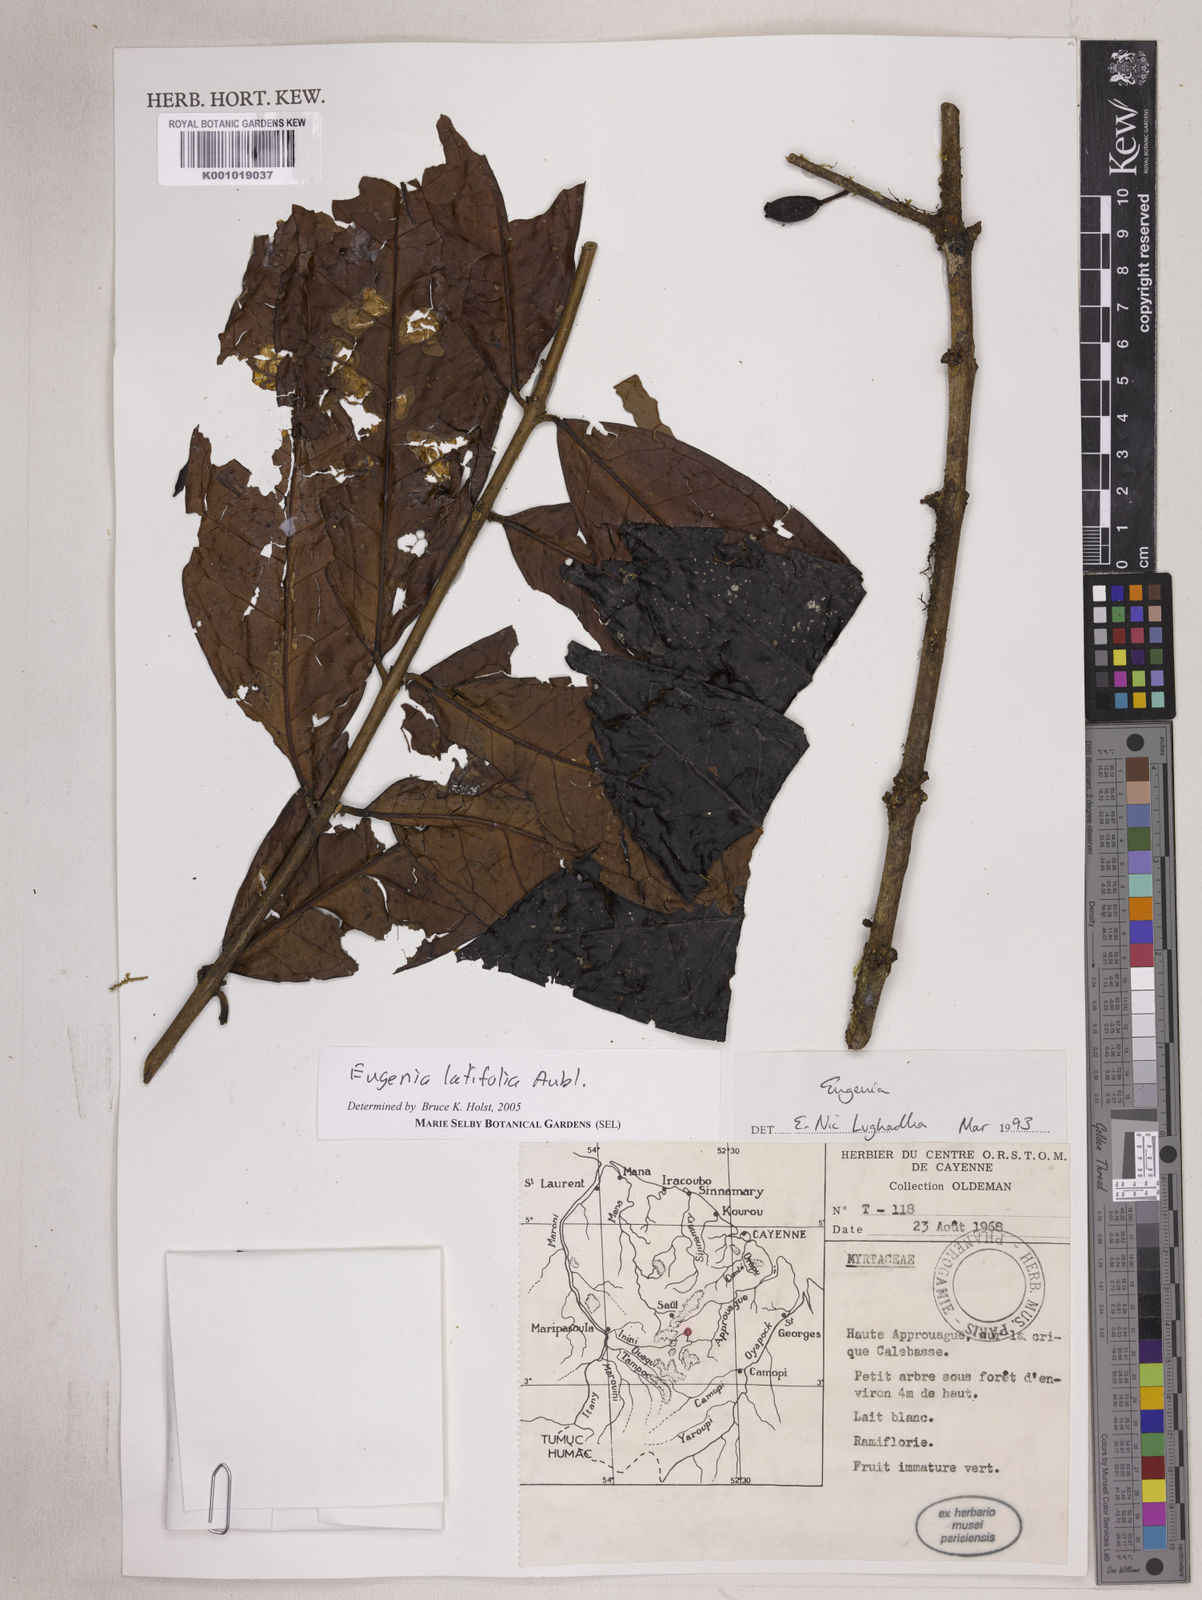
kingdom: Plantae
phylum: Tracheophyta
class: Magnoliopsida
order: Myrtales
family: Myrtaceae
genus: Eugenia
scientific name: Eugenia latifolia
